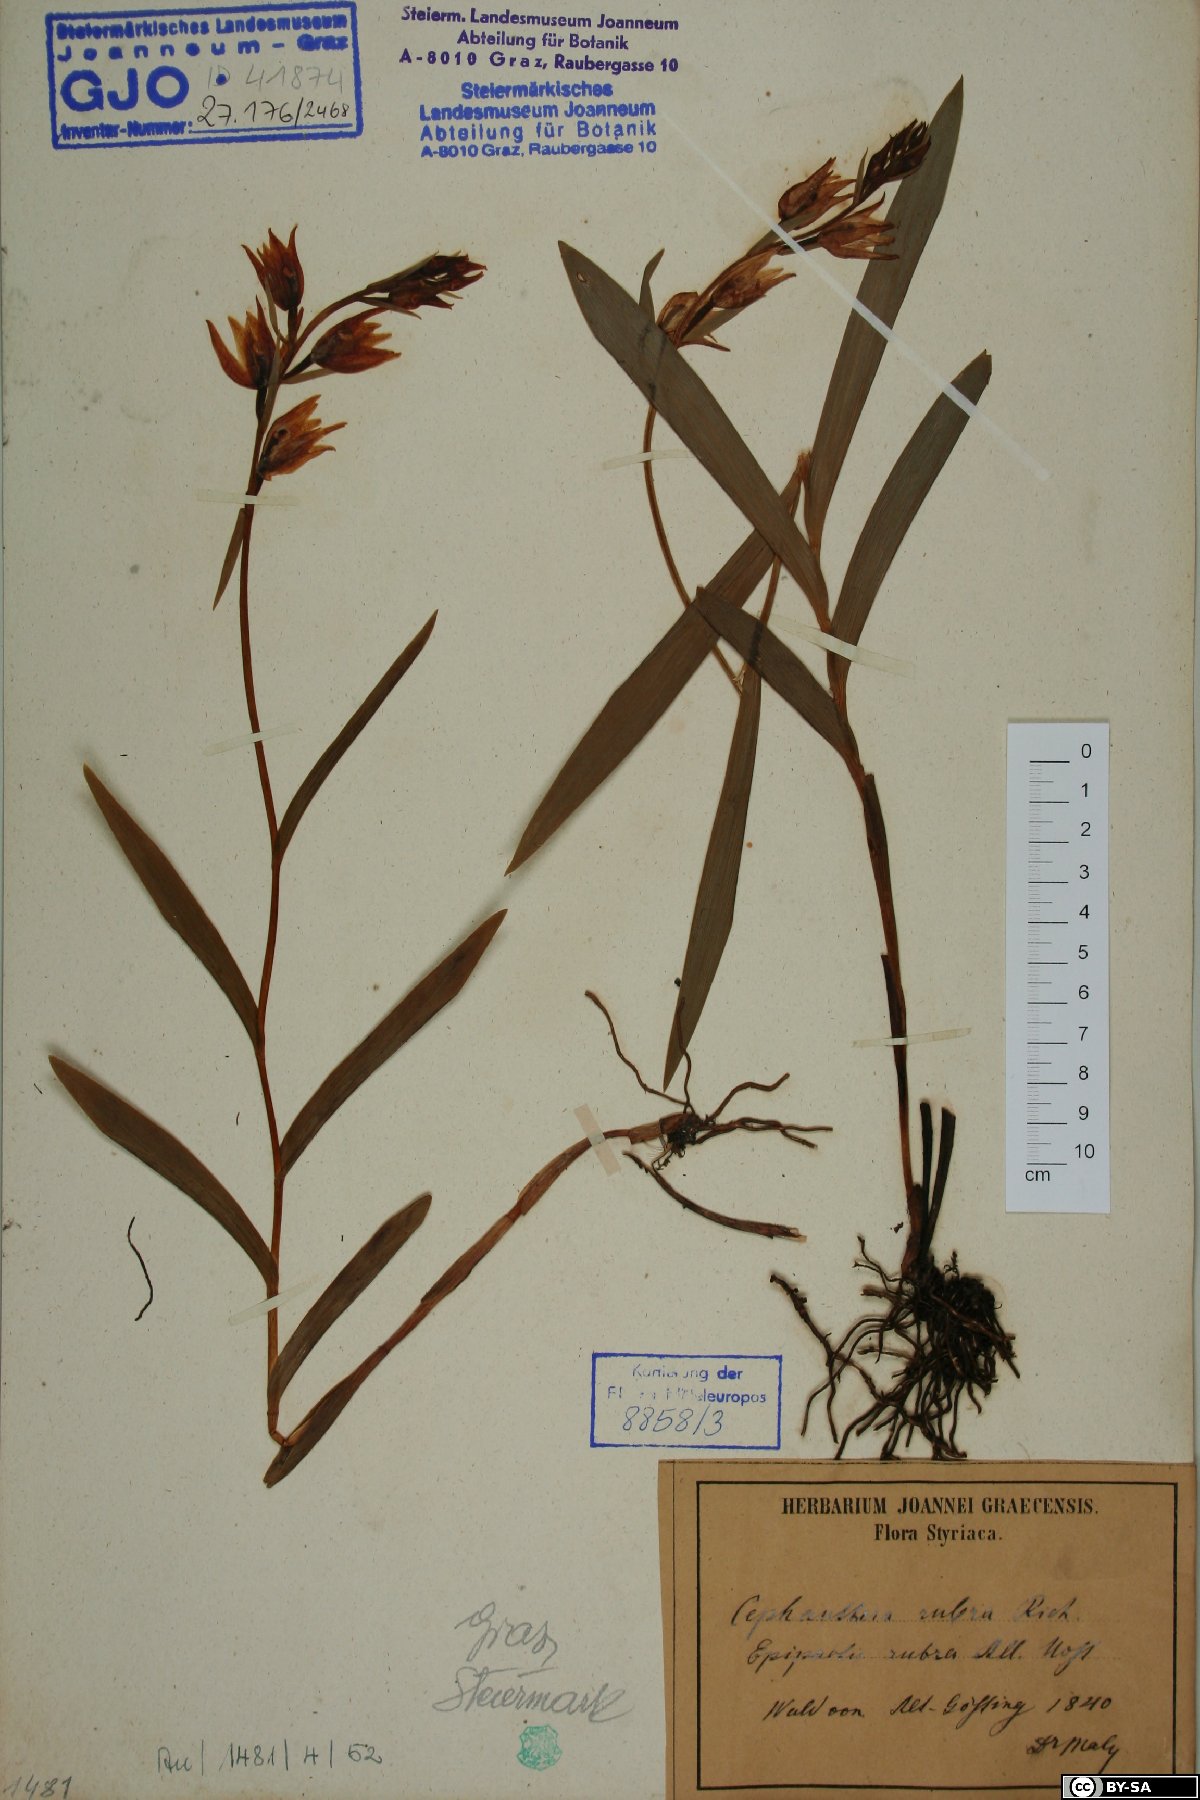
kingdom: Plantae
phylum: Tracheophyta
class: Liliopsida
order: Asparagales
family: Orchidaceae
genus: Cephalanthera
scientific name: Cephalanthera rubra
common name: Red helleborine
